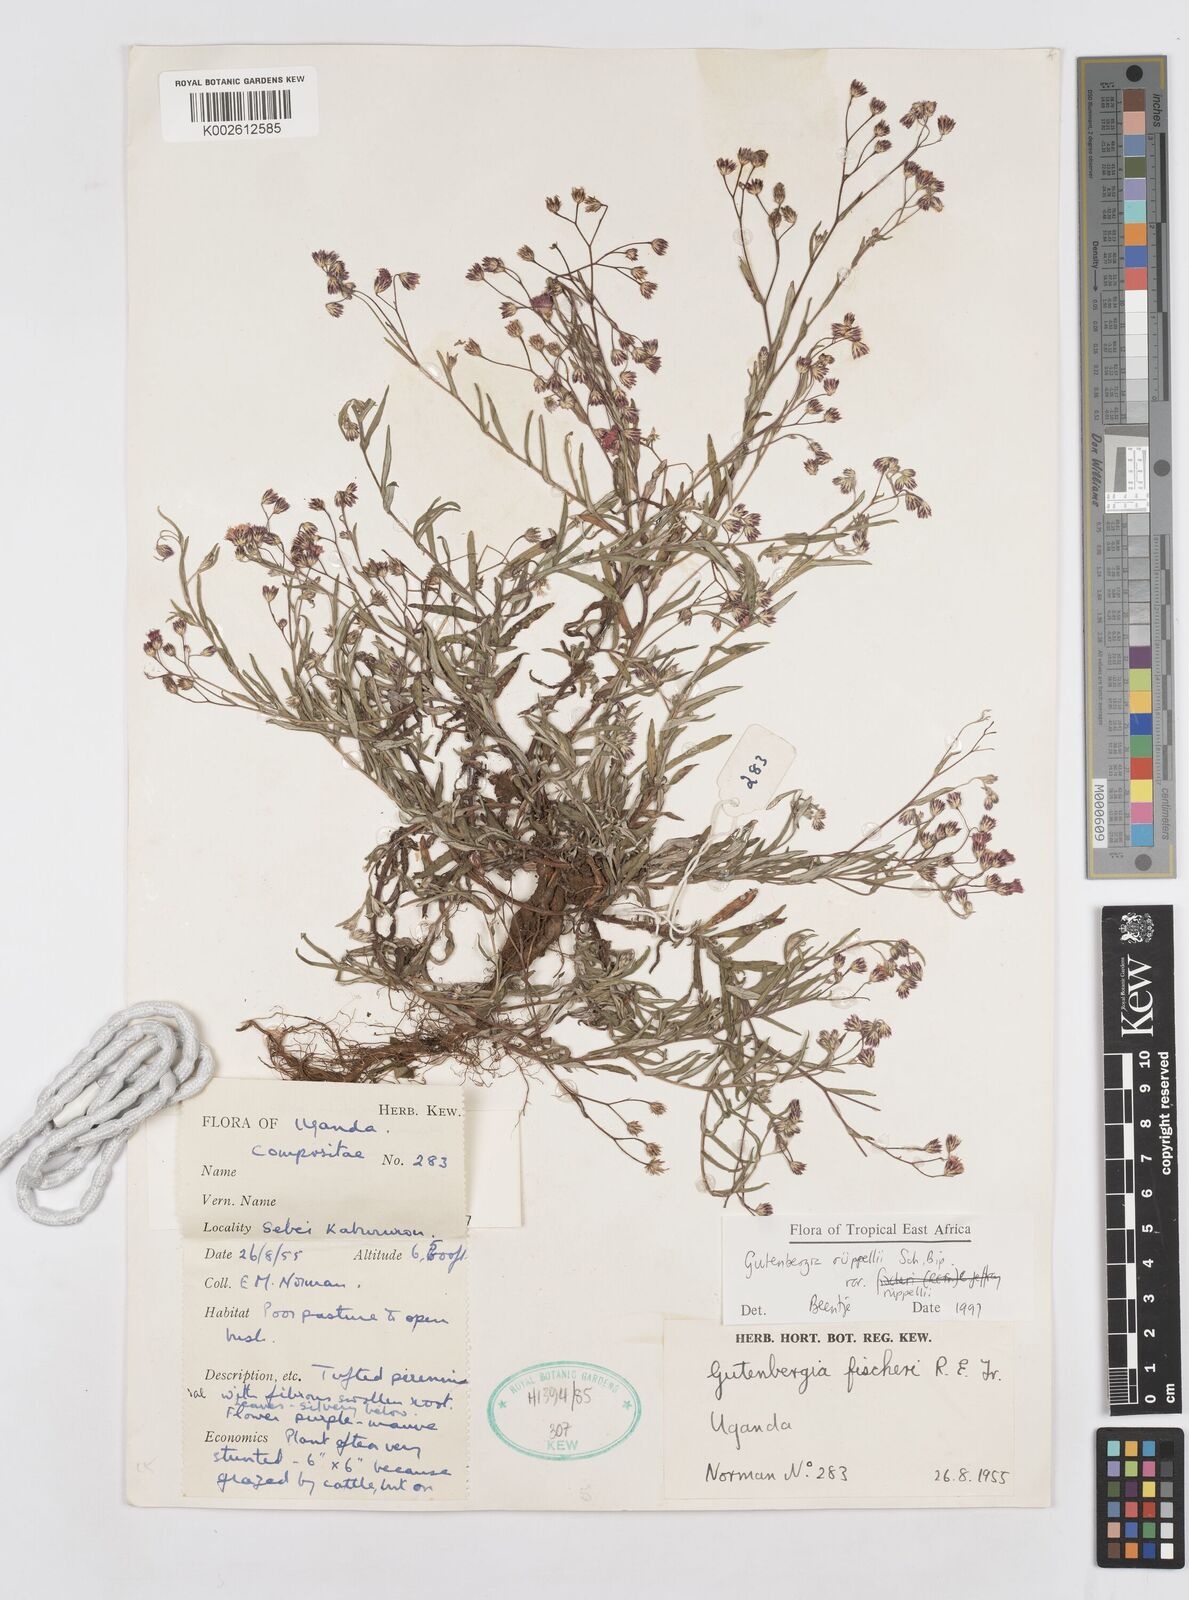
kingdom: Plantae
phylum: Tracheophyta
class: Magnoliopsida
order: Asterales
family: Asteraceae
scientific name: Asteraceae
